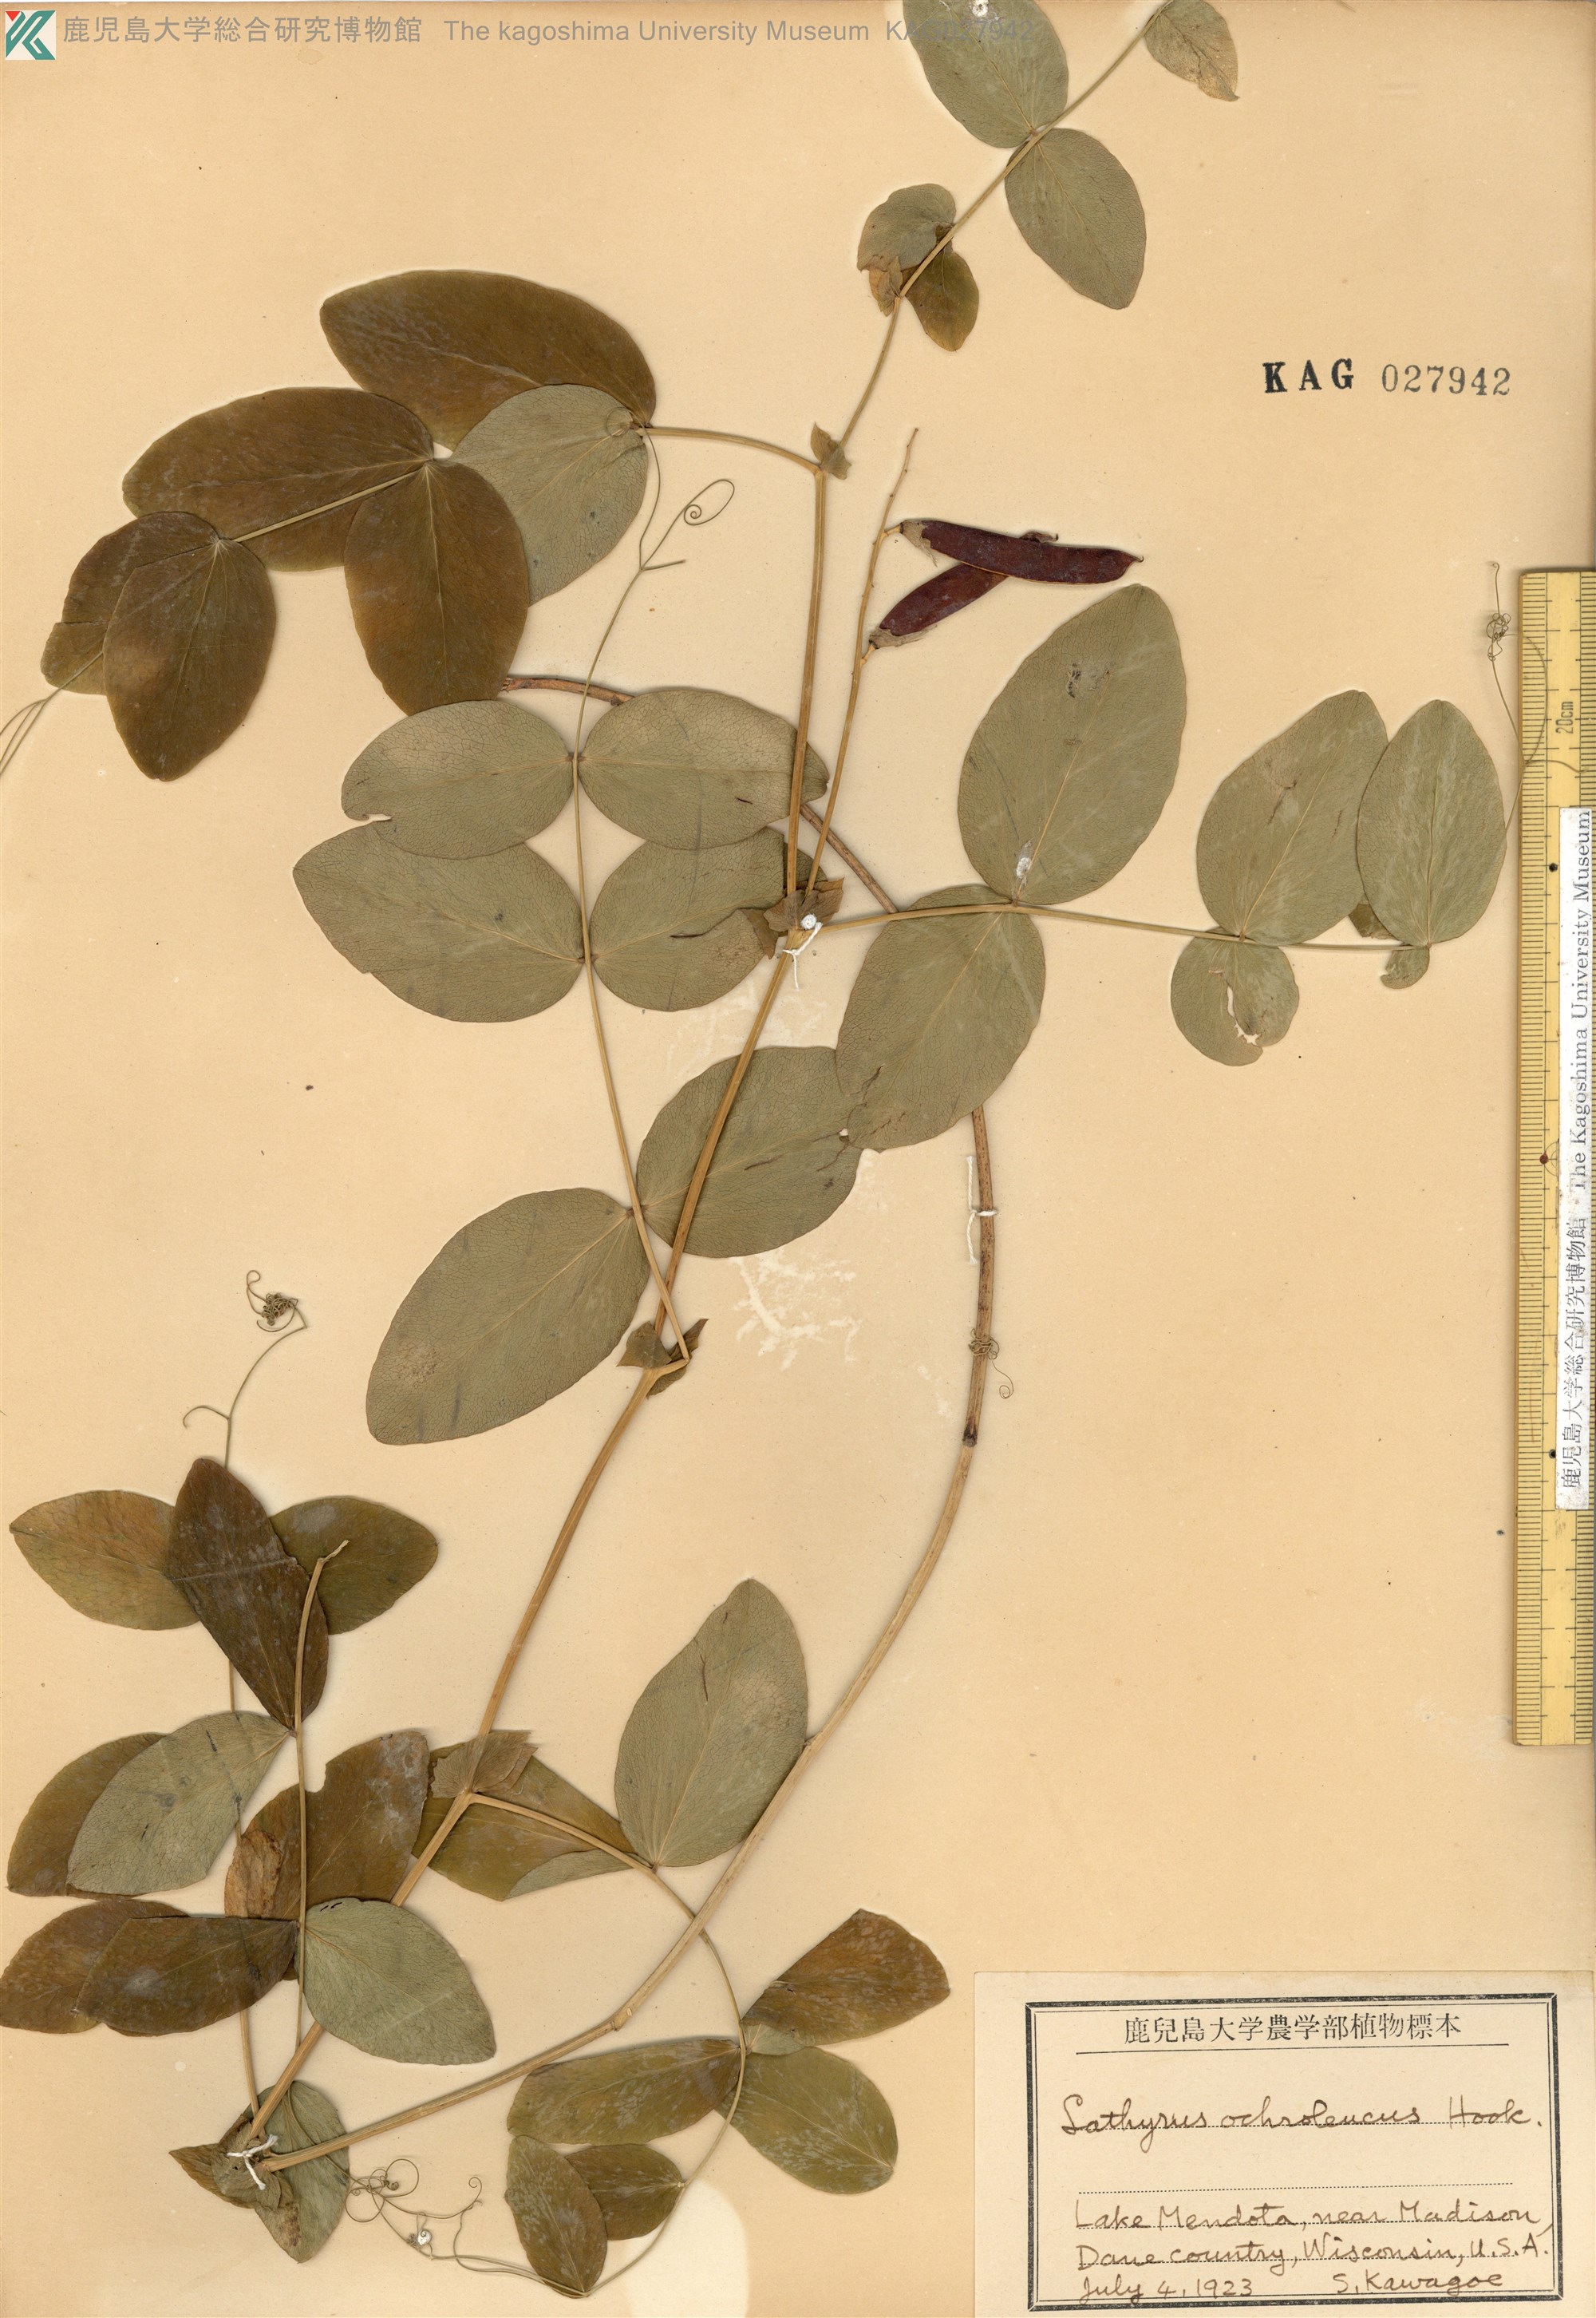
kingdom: Plantae
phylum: Tracheophyta
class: Magnoliopsida
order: Fabales
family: Fabaceae
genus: Lathyrus
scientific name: Lathyrus ochroleucus
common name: Pale vetchling
